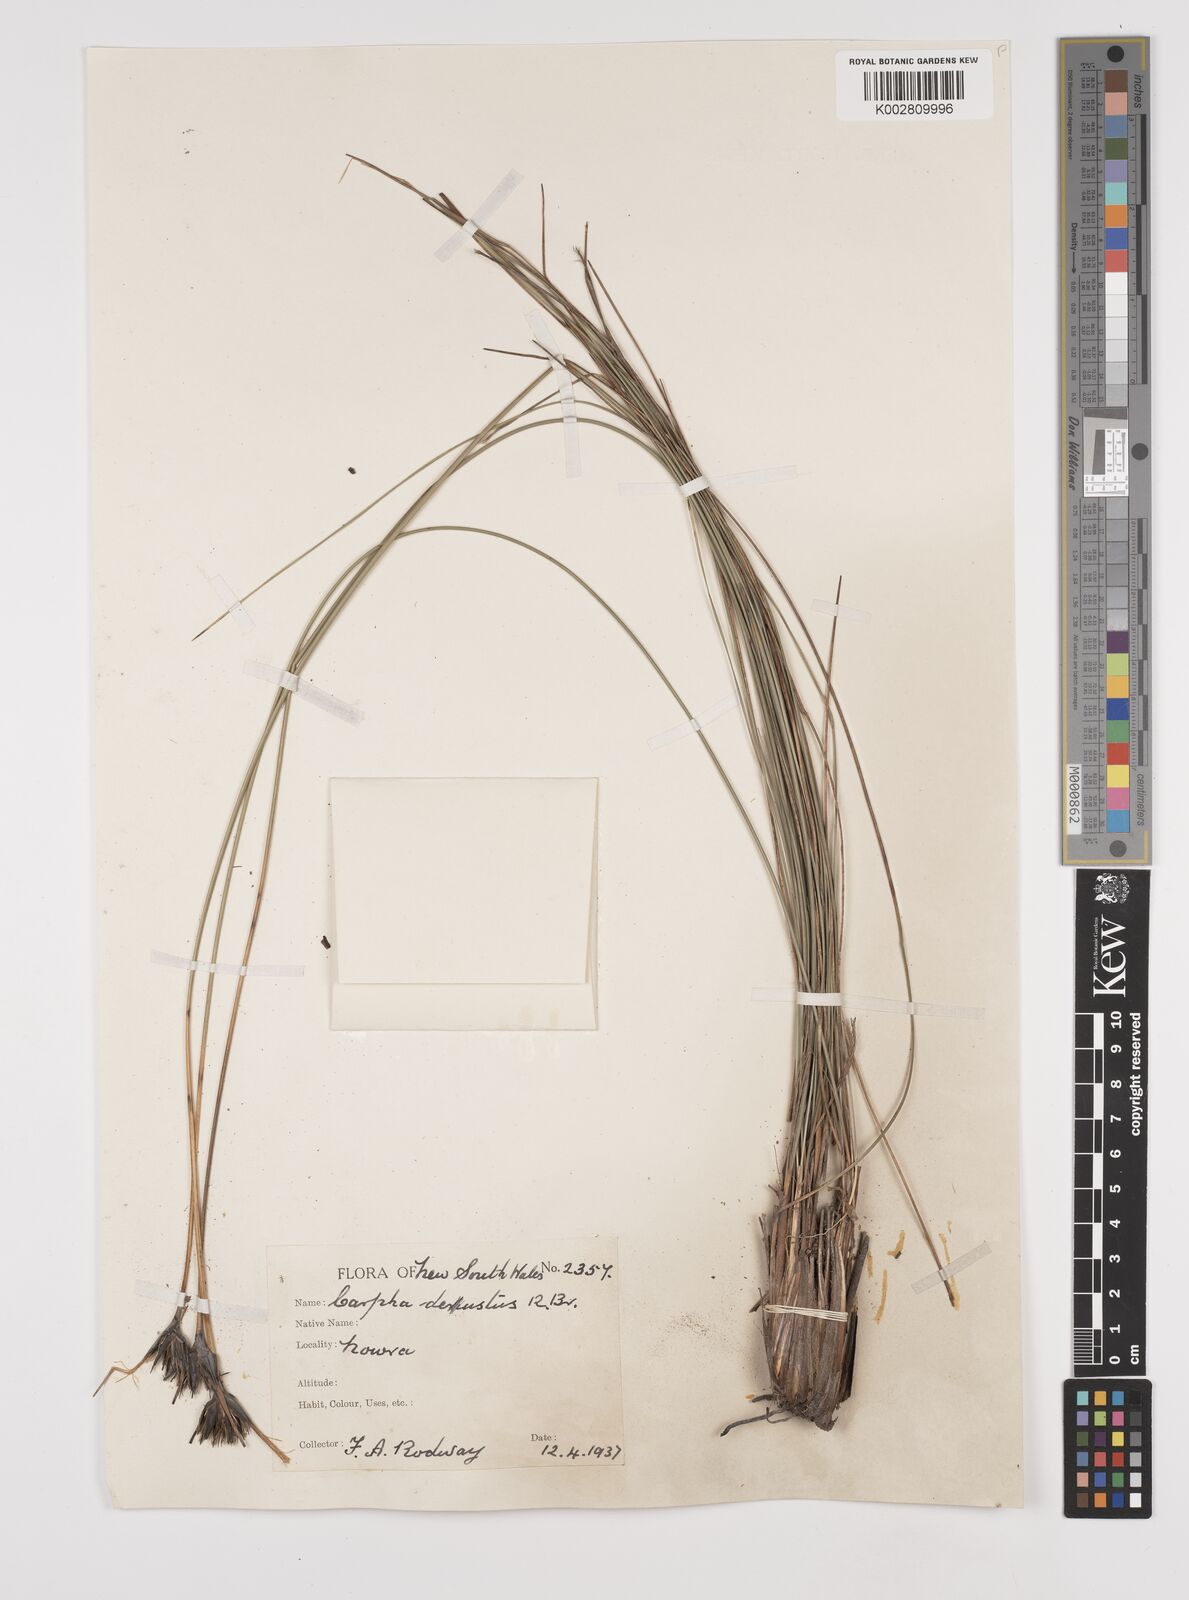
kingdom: Plantae
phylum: Tracheophyta
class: Liliopsida
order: Poales
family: Cyperaceae
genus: Ptilothrix
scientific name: Ptilothrix deusta
